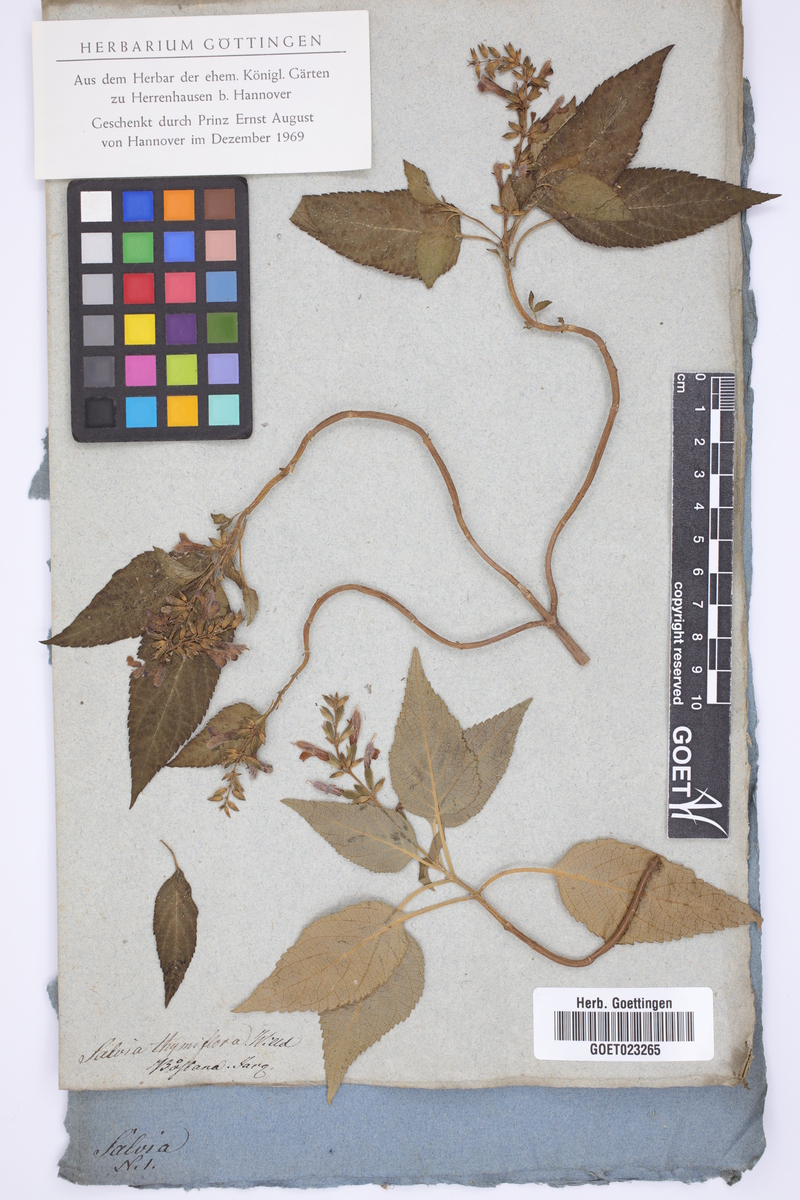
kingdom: Plantae
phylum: Tracheophyta
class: Magnoliopsida
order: Lamiales
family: Lamiaceae
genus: Salvia
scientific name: Salvia lamiifolia
